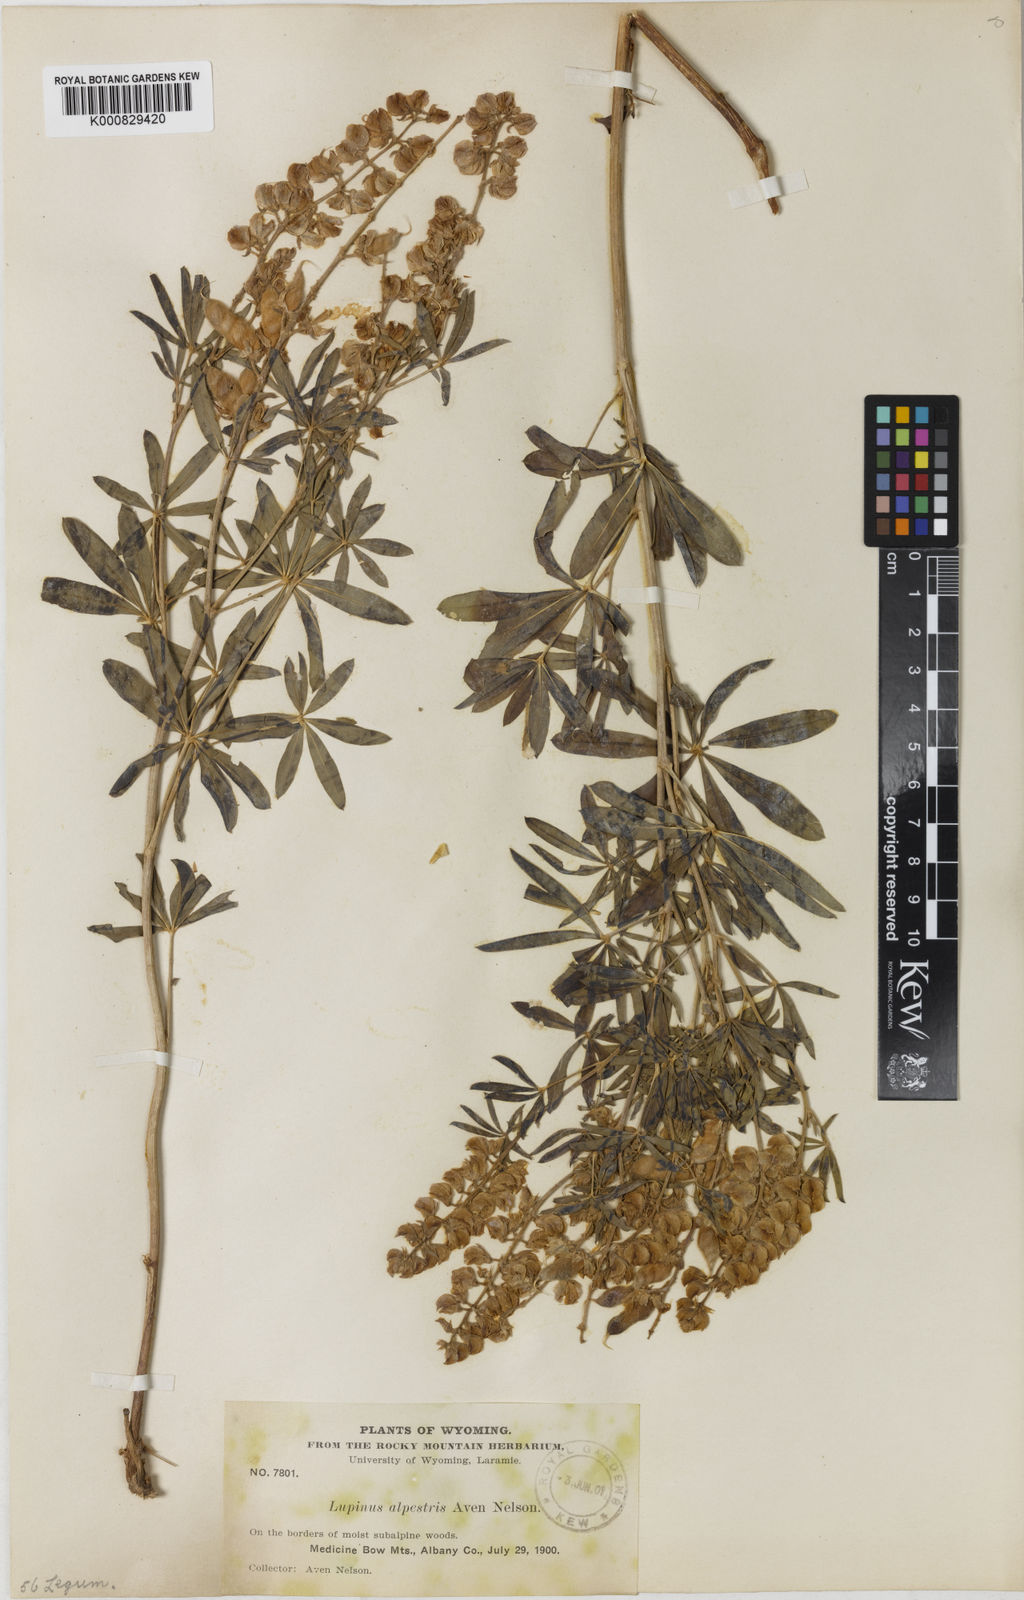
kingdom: Plantae
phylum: Tracheophyta
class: Magnoliopsida
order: Fabales
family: Fabaceae
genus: Lupinus
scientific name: Lupinus argenteus
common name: Silvery lupine
